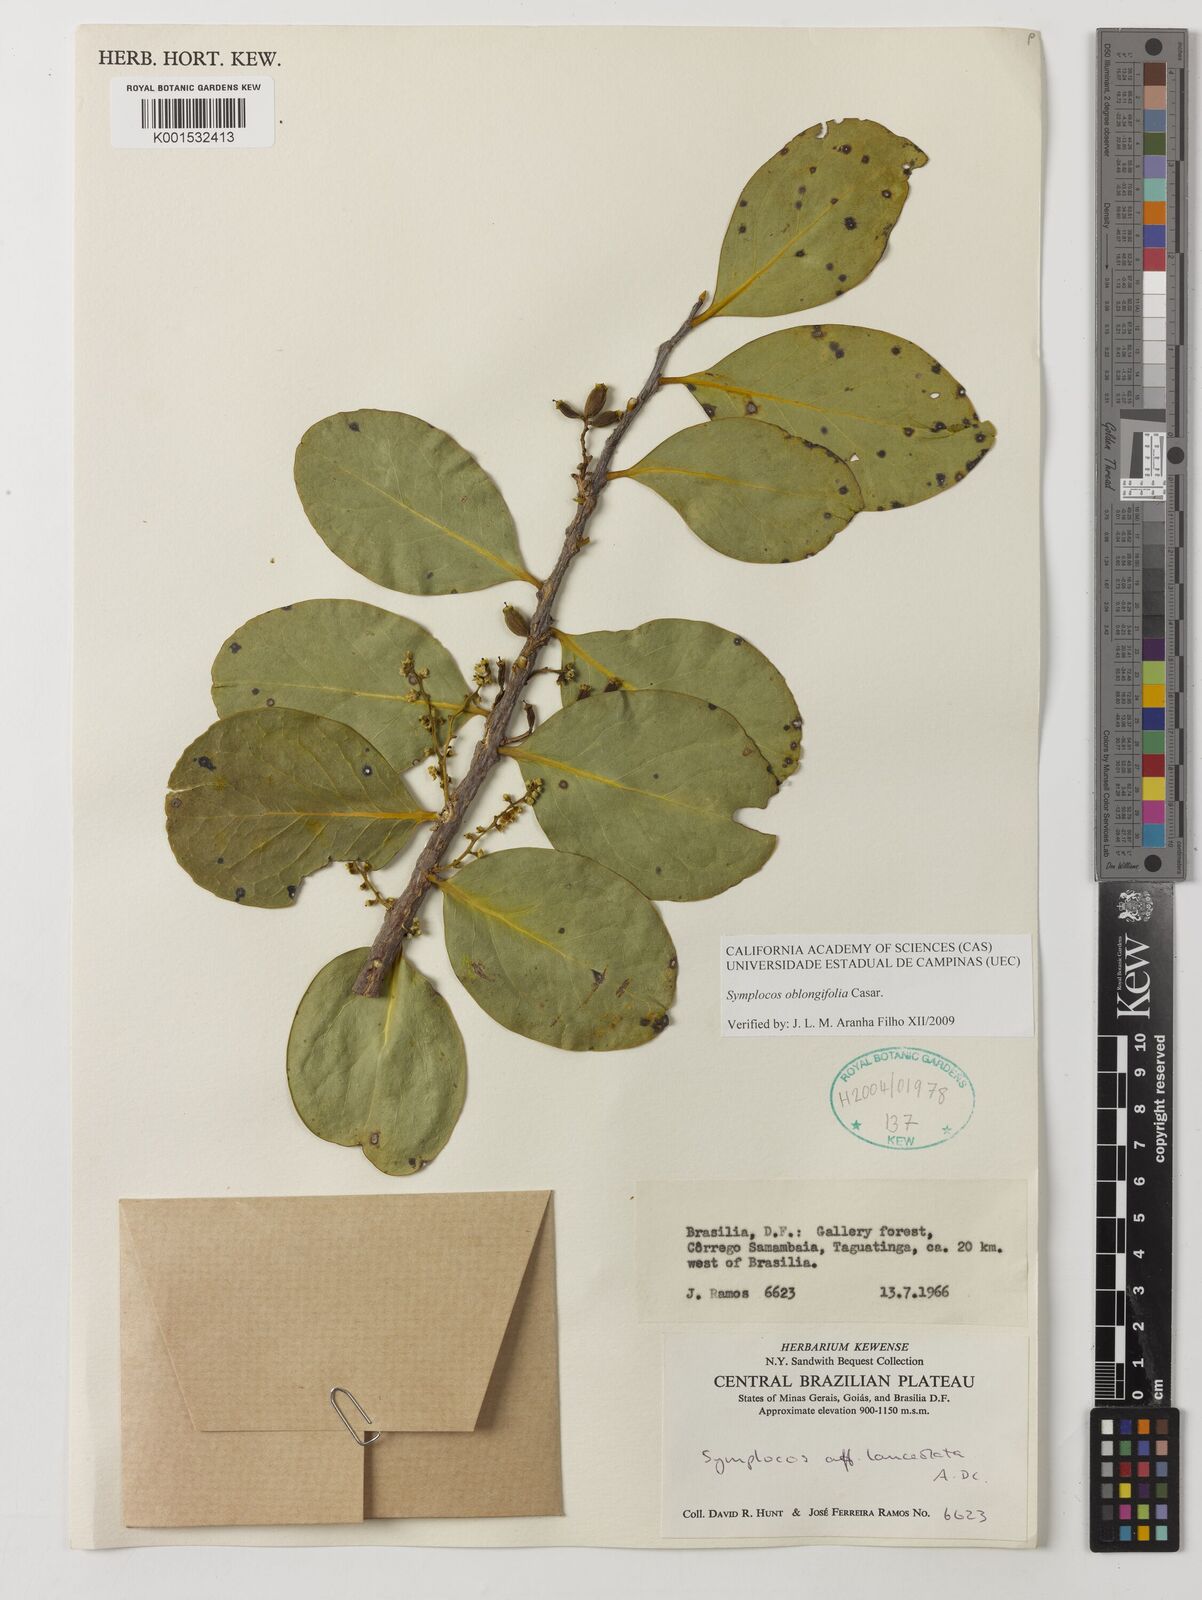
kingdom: Plantae
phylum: Tracheophyta
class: Magnoliopsida
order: Ericales
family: Symplocaceae
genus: Symplocos
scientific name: Symplocos oblongifolia
